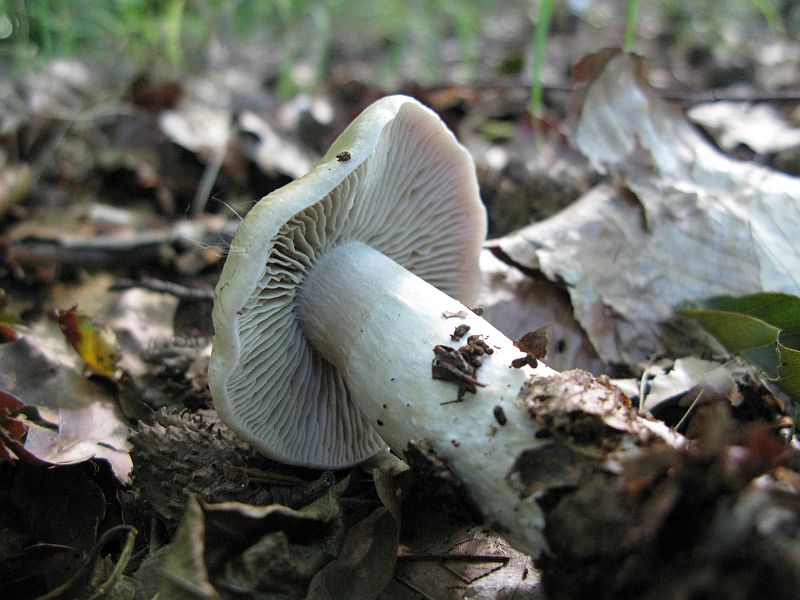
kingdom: Fungi
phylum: Basidiomycota
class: Agaricomycetes
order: Agaricales
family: Cortinariaceae
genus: Cortinarius
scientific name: Cortinarius elatior
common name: høj slørhat
